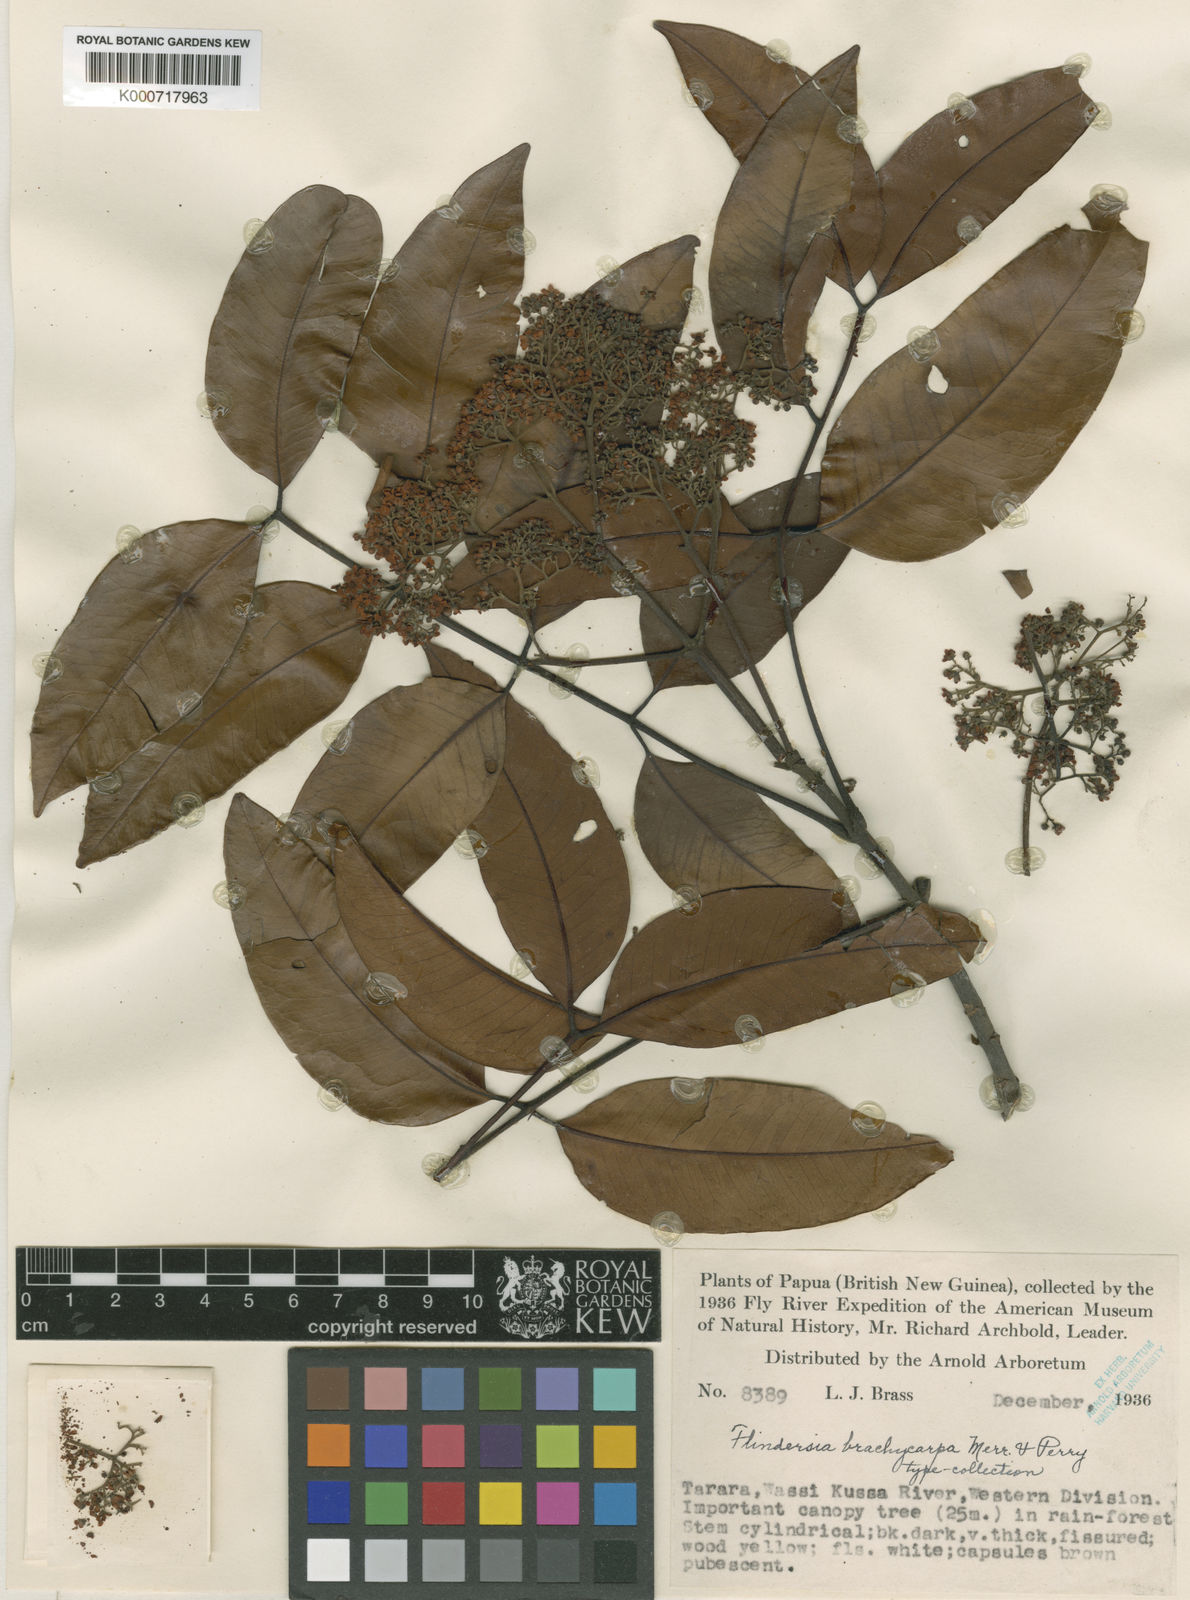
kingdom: Plantae
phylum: Tracheophyta
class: Magnoliopsida
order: Sapindales
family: Rutaceae
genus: Flindersia
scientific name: Flindersia
